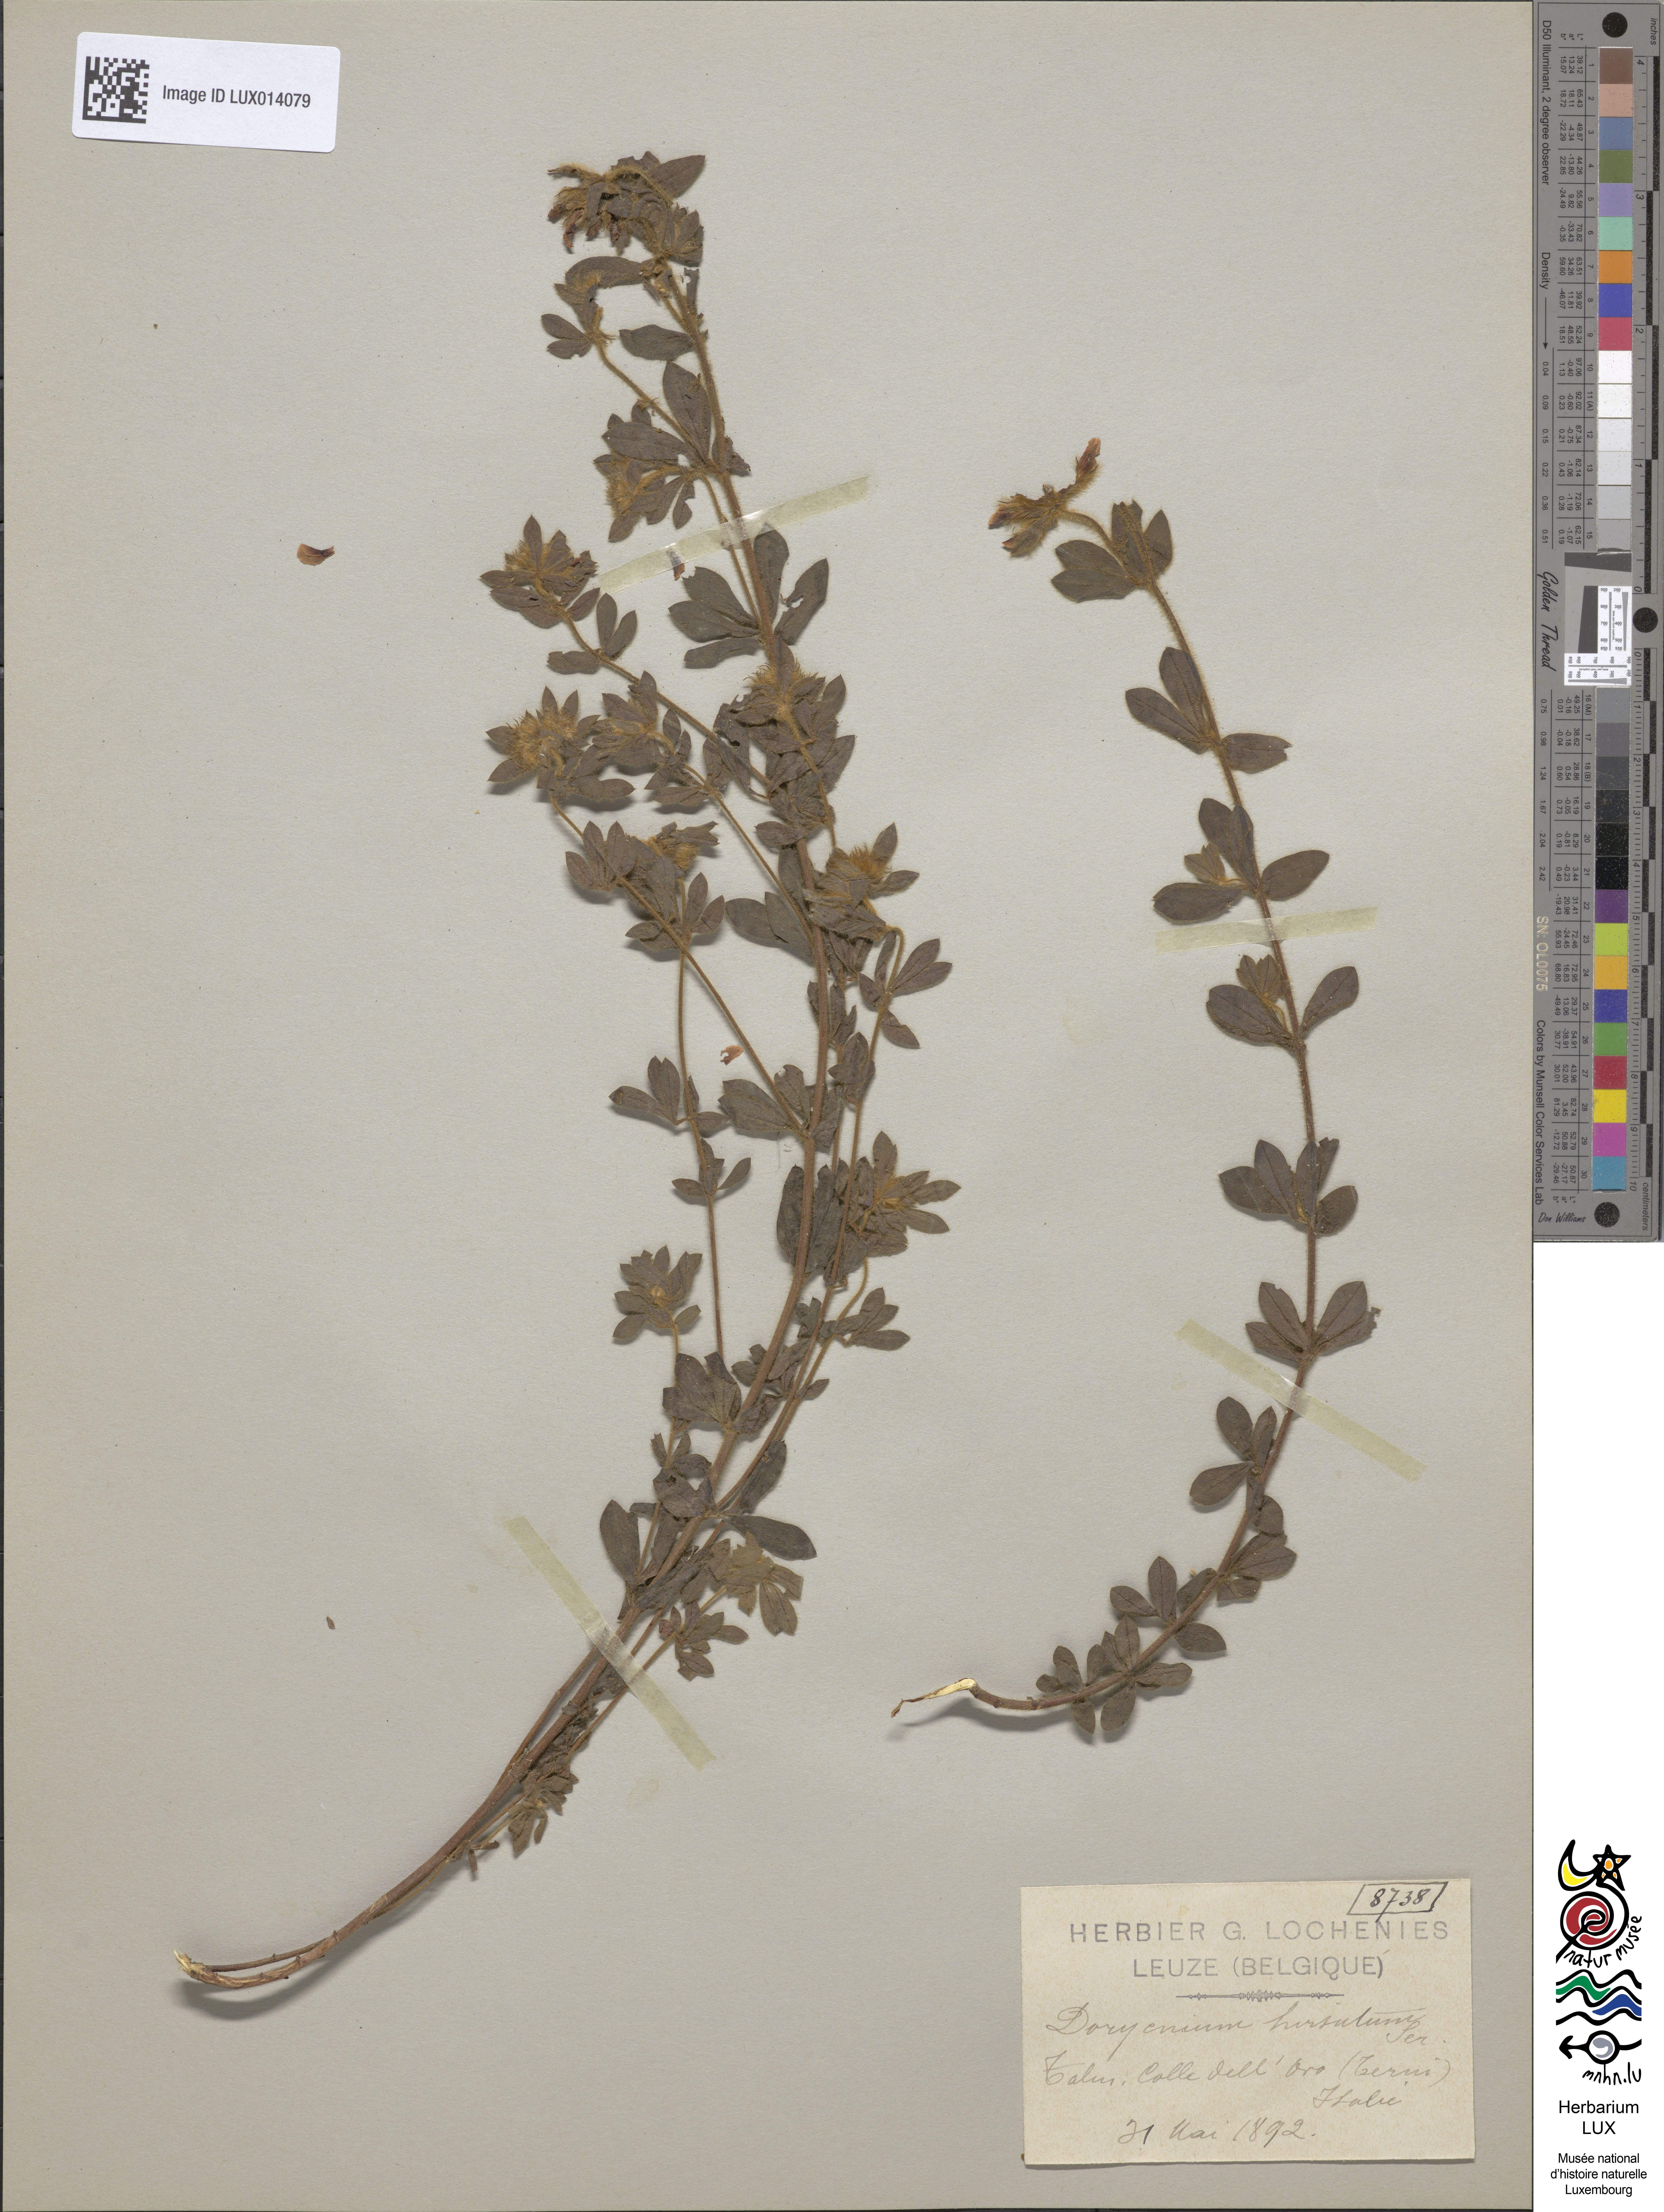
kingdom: Plantae
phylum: Tracheophyta
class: Magnoliopsida
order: Fabales
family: Fabaceae
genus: Lotus
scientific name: Lotus hirsutus
